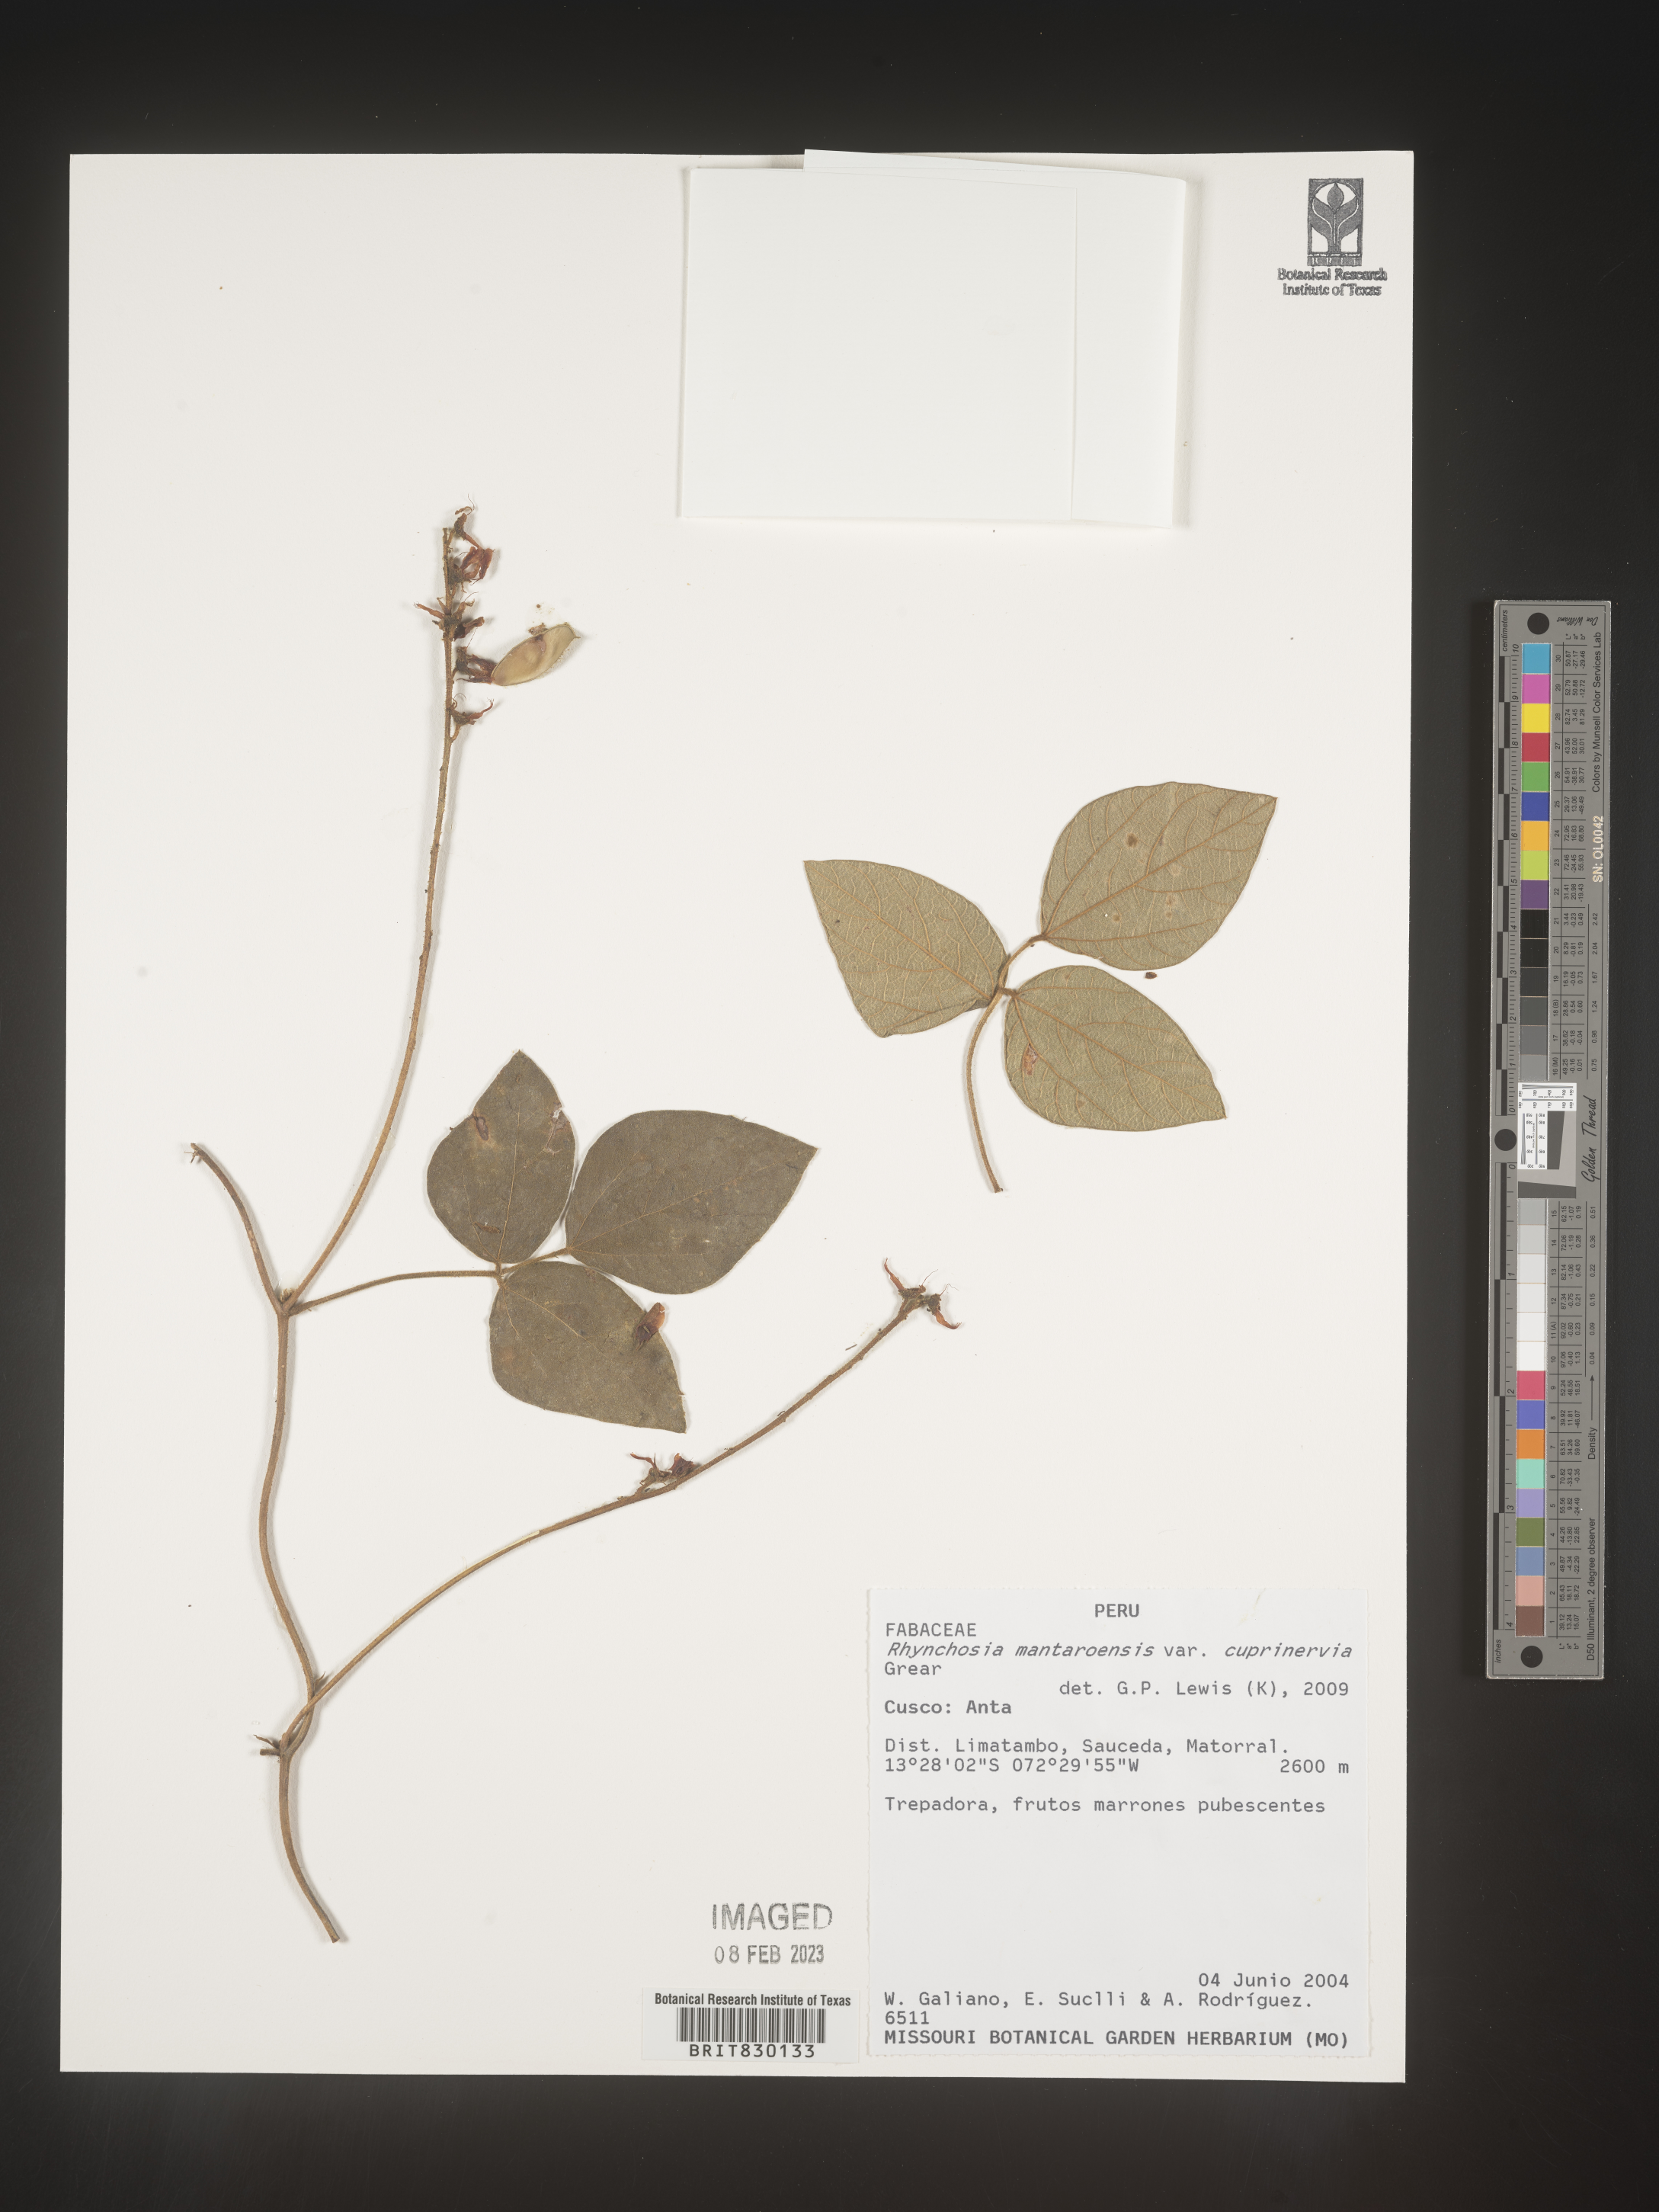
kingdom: Plantae
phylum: Tracheophyta
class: Magnoliopsida
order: Fabales
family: Fabaceae
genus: Rhynchosia
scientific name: Rhynchosia
